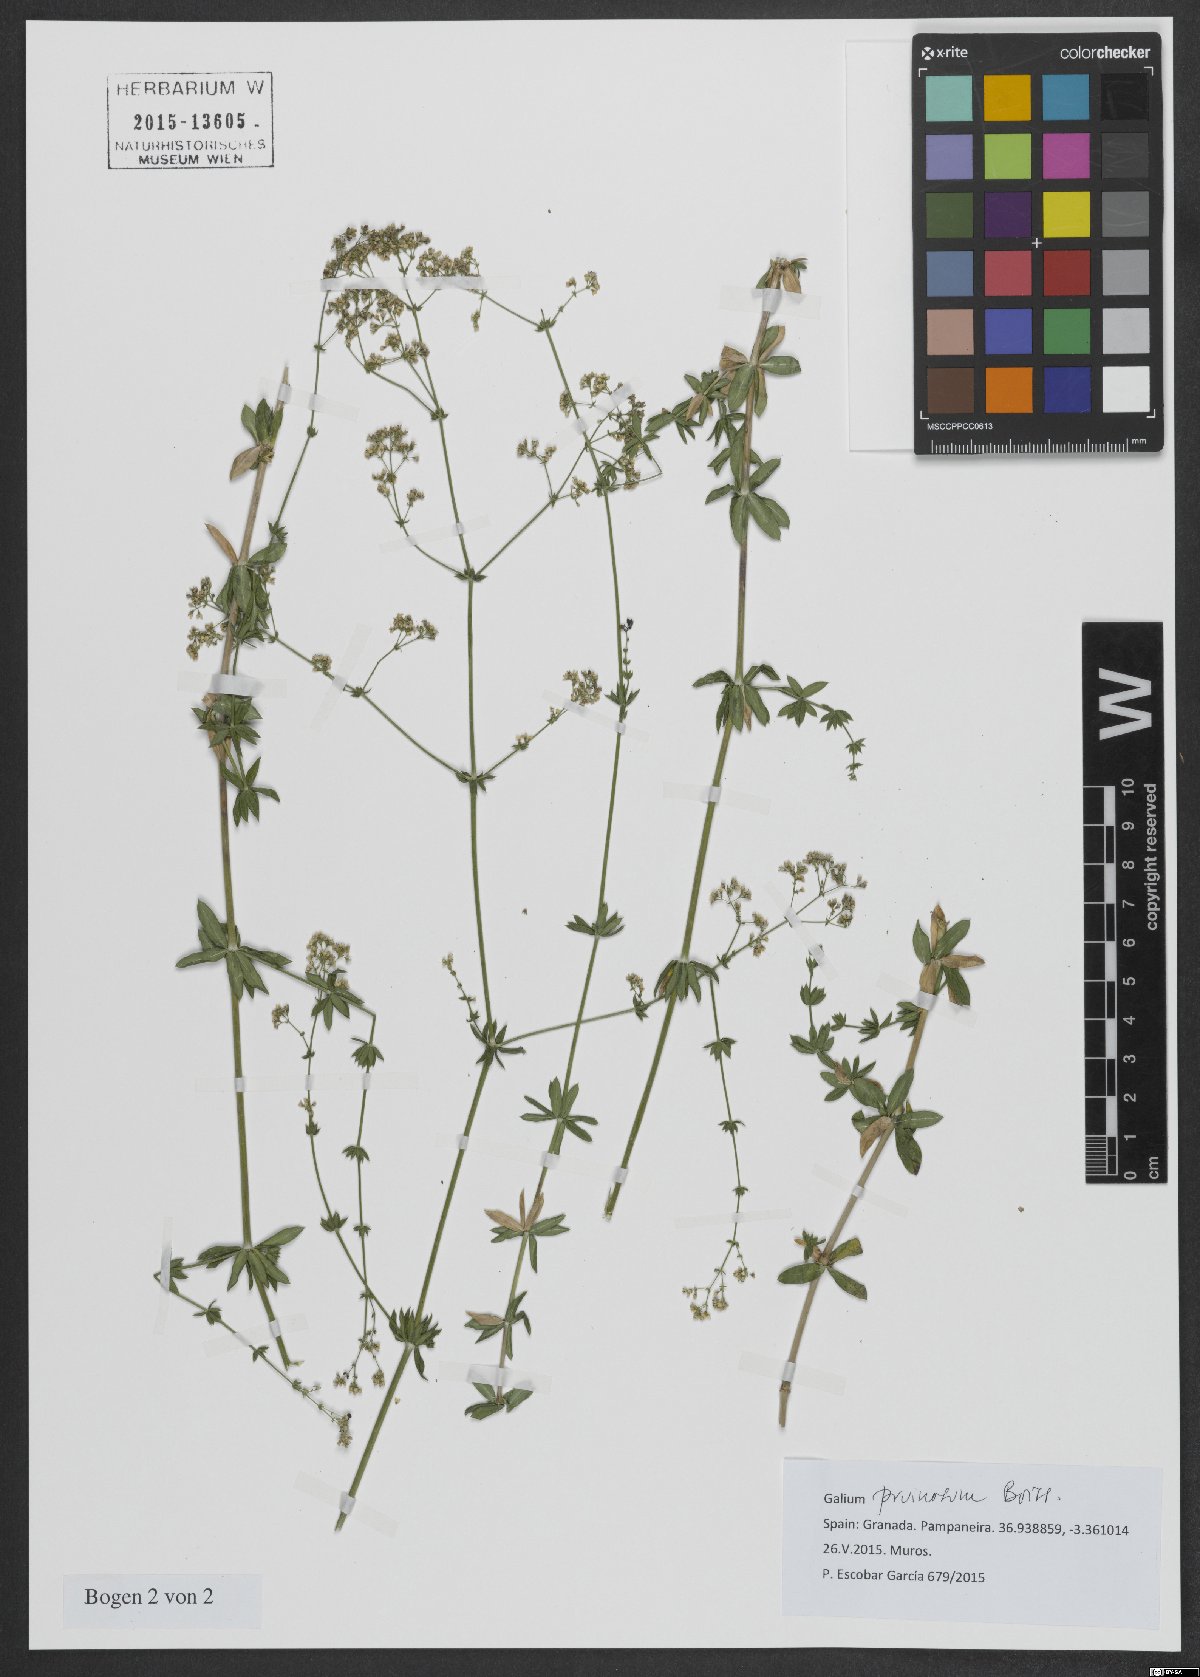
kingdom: Plantae
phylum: Tracheophyta
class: Magnoliopsida
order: Gentianales
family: Rubiaceae
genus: Galium
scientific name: Galium pruinosum
